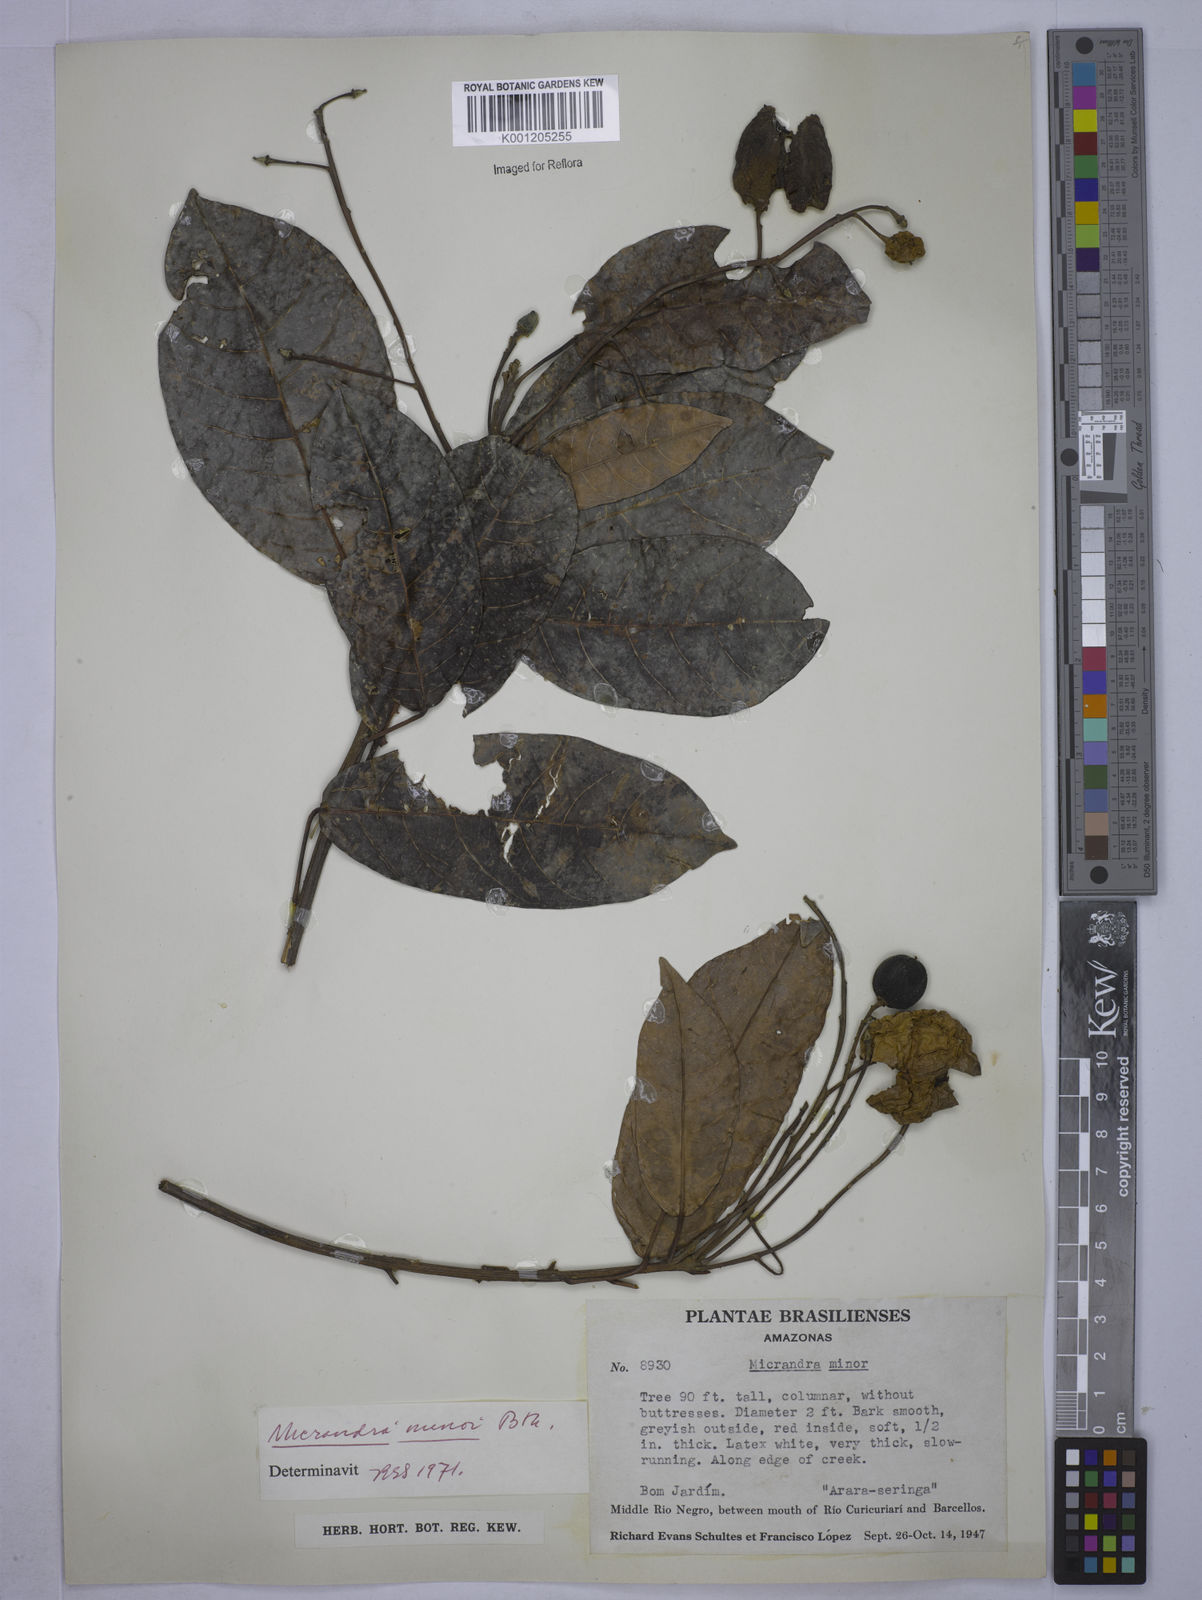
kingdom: Plantae
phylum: Tracheophyta
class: Magnoliopsida
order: Malpighiales
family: Euphorbiaceae
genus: Micrandra
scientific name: Micrandra minor
